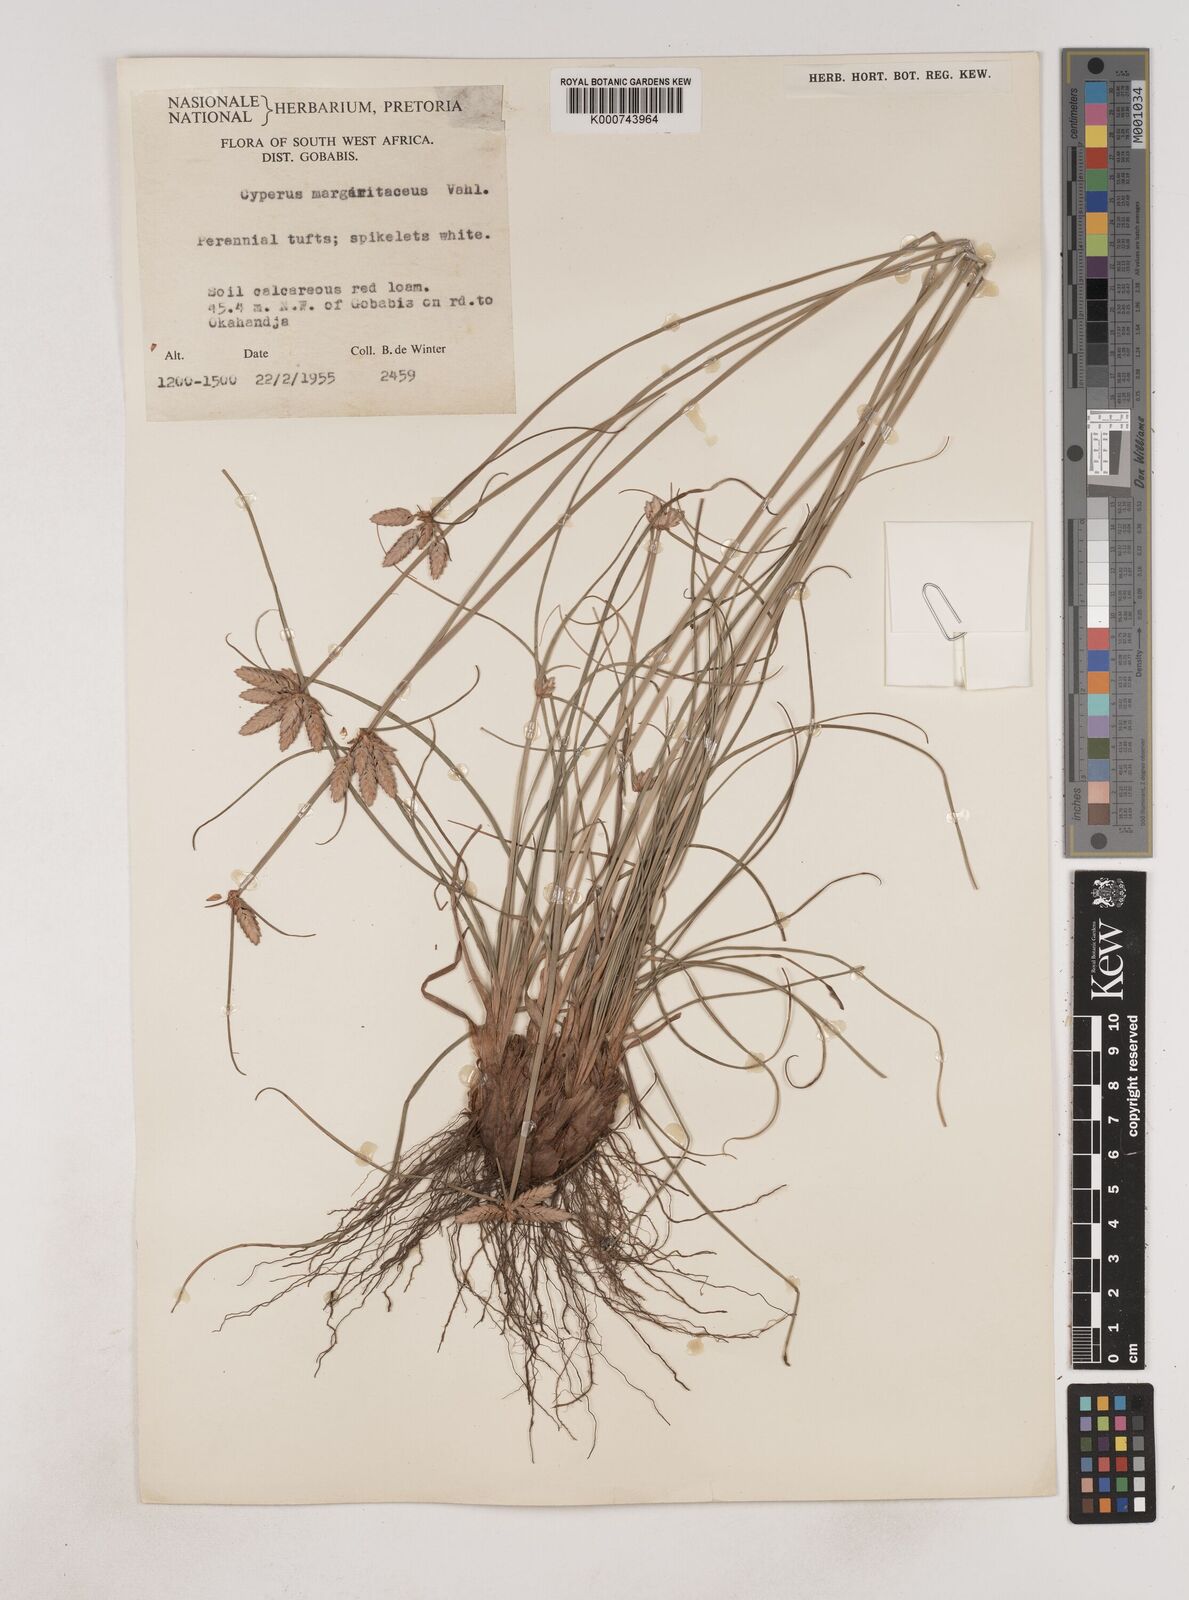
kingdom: Plantae
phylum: Tracheophyta
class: Liliopsida
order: Poales
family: Cyperaceae
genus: Cyperus
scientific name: Cyperus margaritaceus
